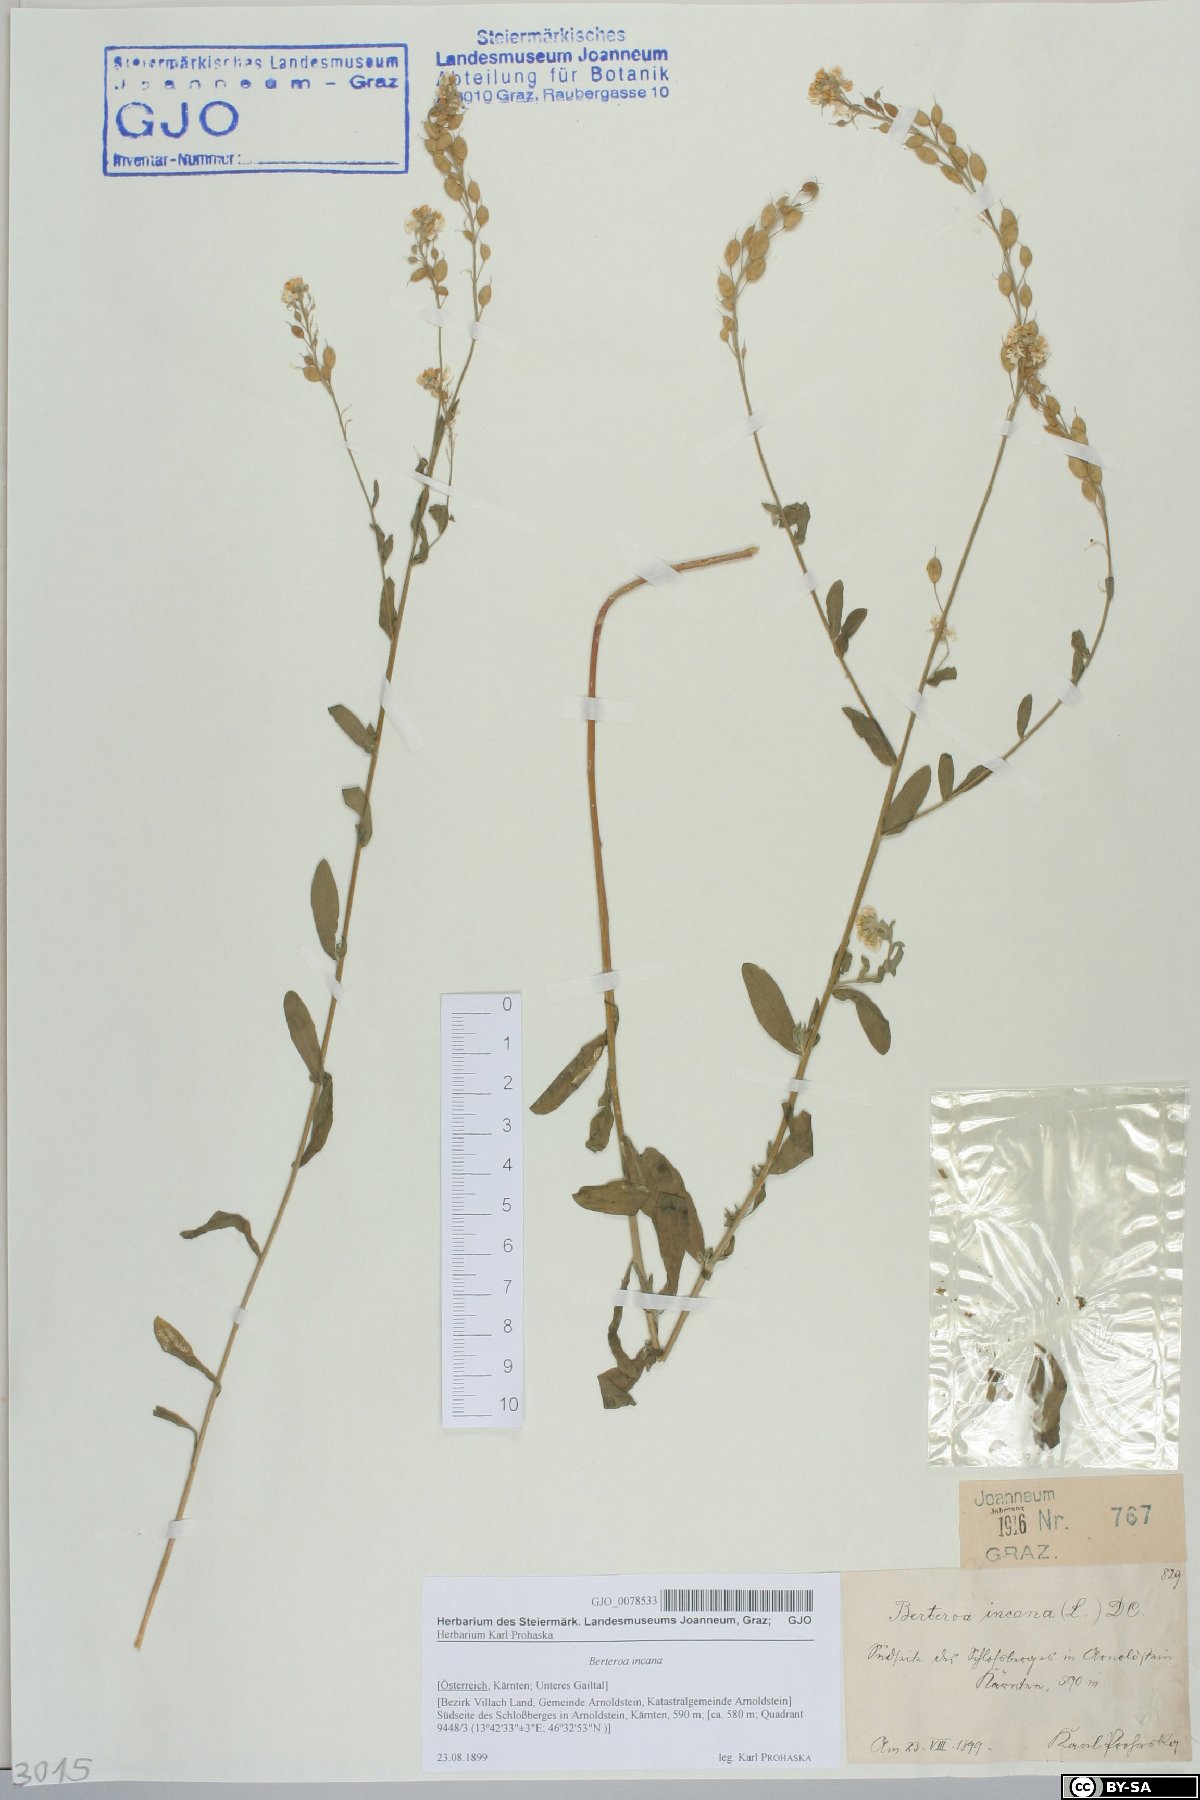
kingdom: Plantae
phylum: Tracheophyta
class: Magnoliopsida
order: Brassicales
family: Brassicaceae
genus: Berteroa
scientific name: Berteroa incana
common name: Hoary alison
